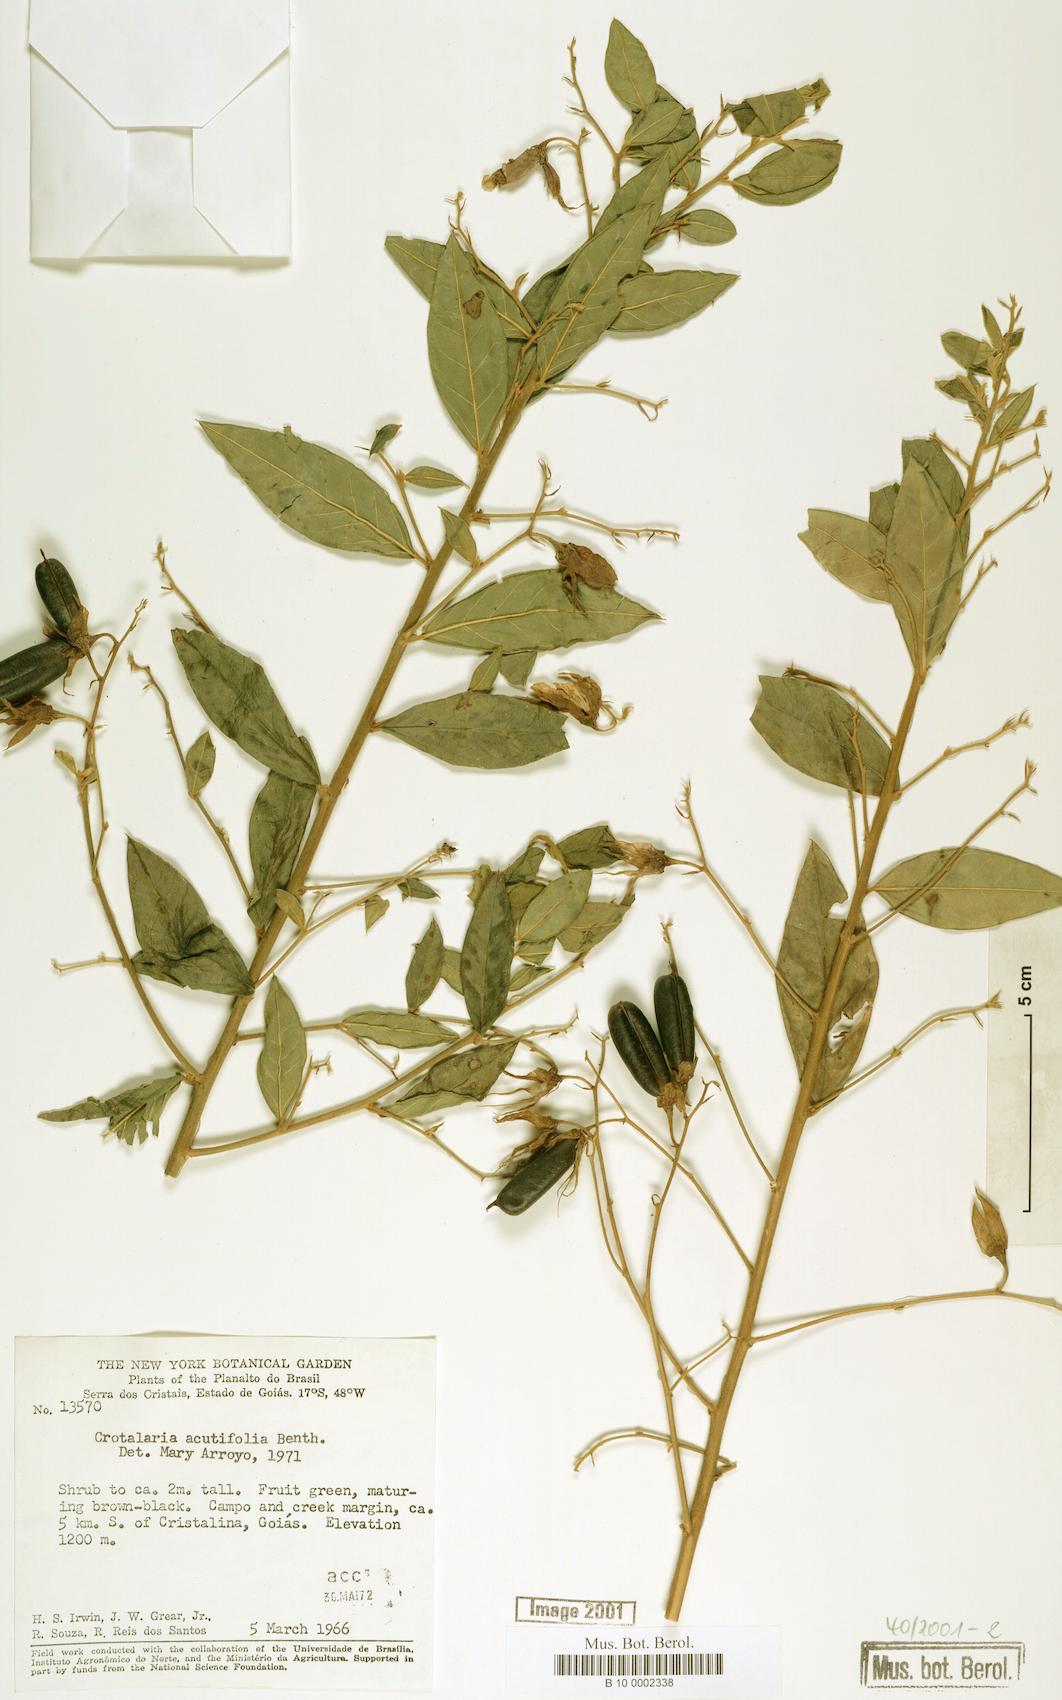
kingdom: Plantae
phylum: Tracheophyta
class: Magnoliopsida
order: Fabales
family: Fabaceae
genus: Crotalaria
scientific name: Crotalaria grandiflora
